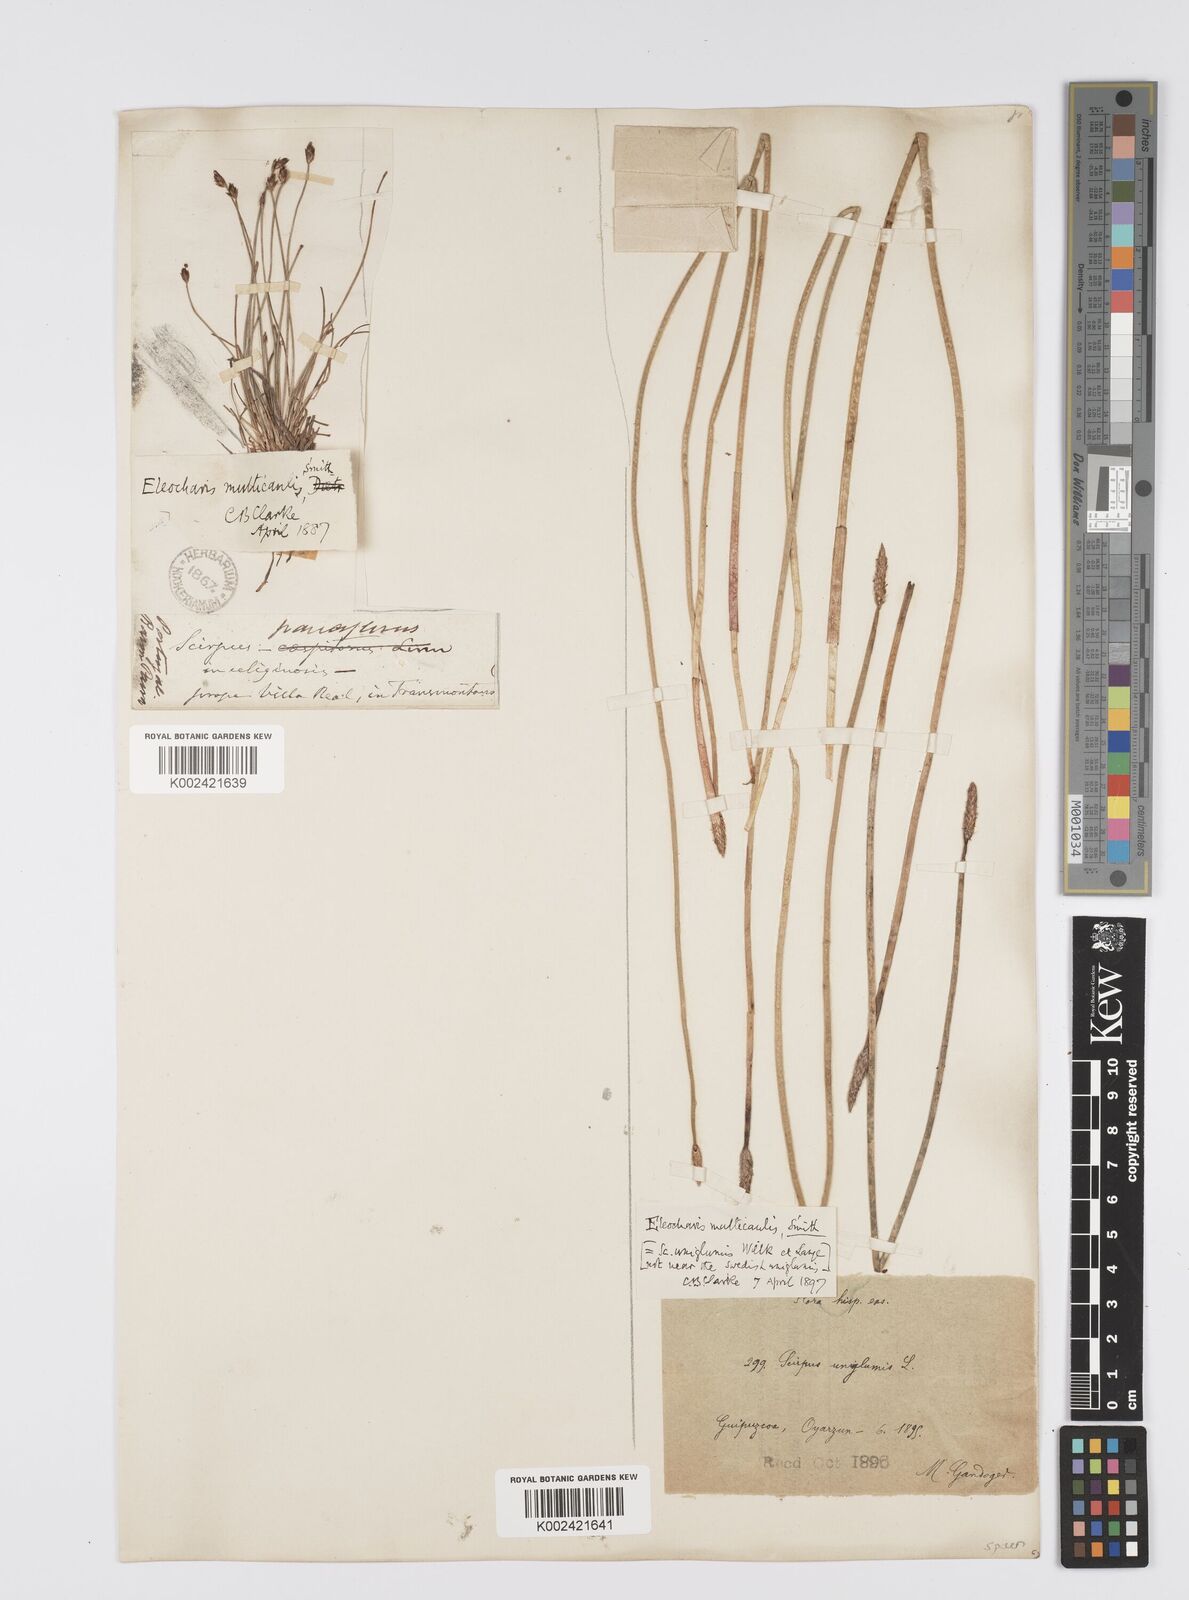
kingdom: Plantae
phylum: Tracheophyta
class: Liliopsida
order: Poales
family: Cyperaceae
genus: Eleocharis
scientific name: Eleocharis multicaulis
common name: Many-stalked spike-rush
